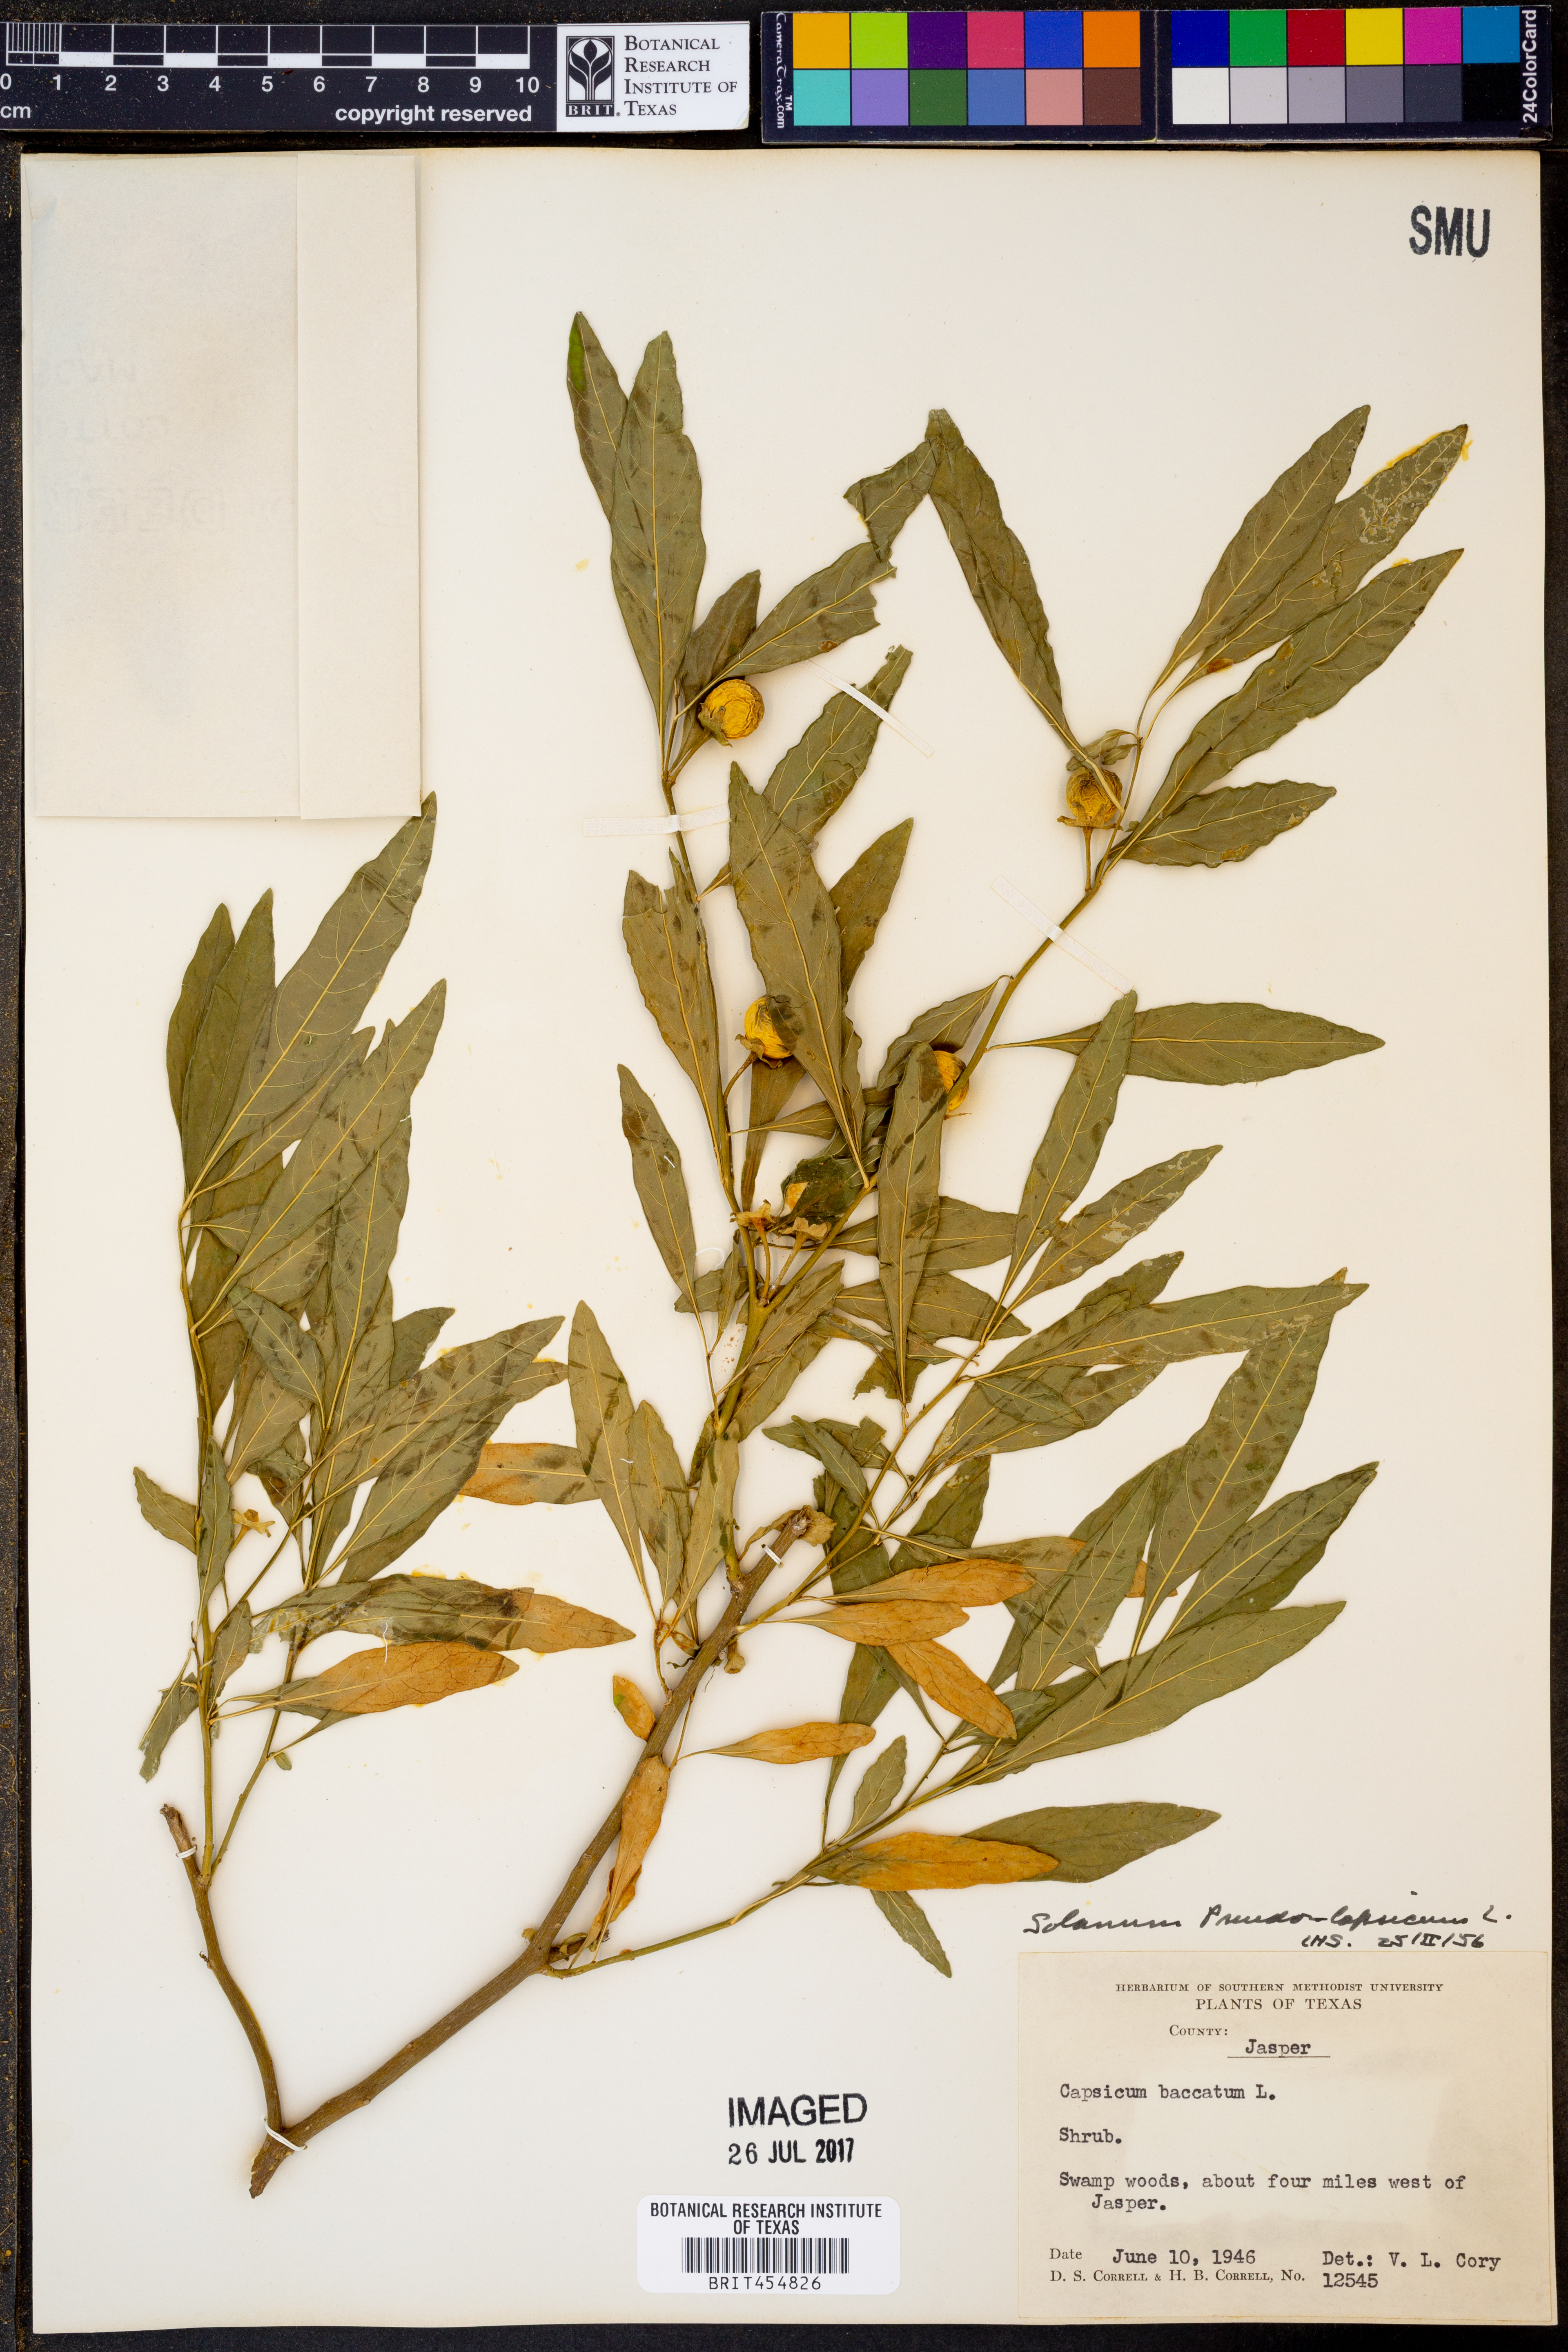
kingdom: Plantae
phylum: Tracheophyta
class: Magnoliopsida
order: Solanales
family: Solanaceae
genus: Solanum
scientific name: Solanum pseudocapsicum
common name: Jerusalem cherry
